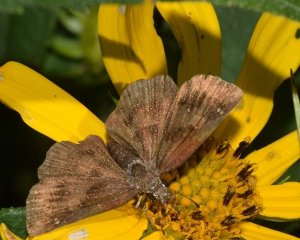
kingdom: Animalia
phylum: Arthropoda
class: Insecta
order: Lepidoptera
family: Hesperiidae
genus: Staphylus
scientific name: Staphylus mazans
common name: Hayhurst's Scallopwing
